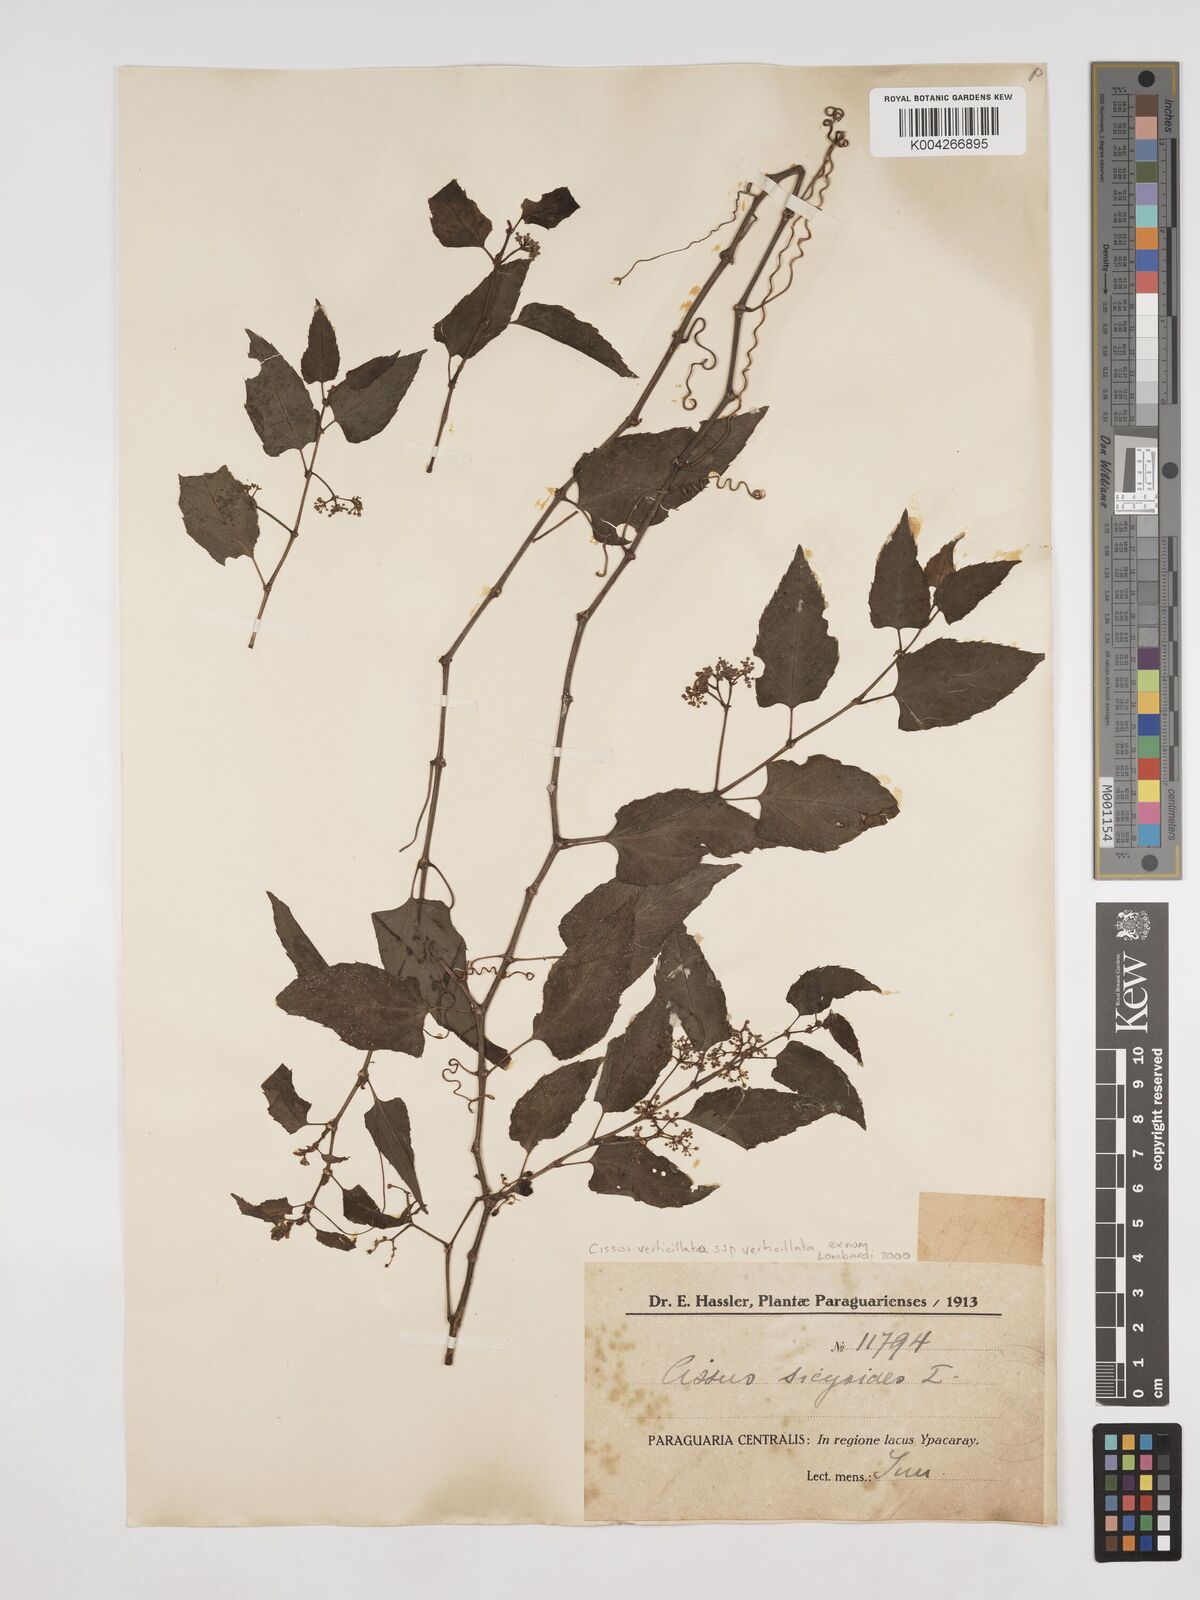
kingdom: Plantae
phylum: Tracheophyta
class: Magnoliopsida
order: Vitales
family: Vitaceae
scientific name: Vitaceae
